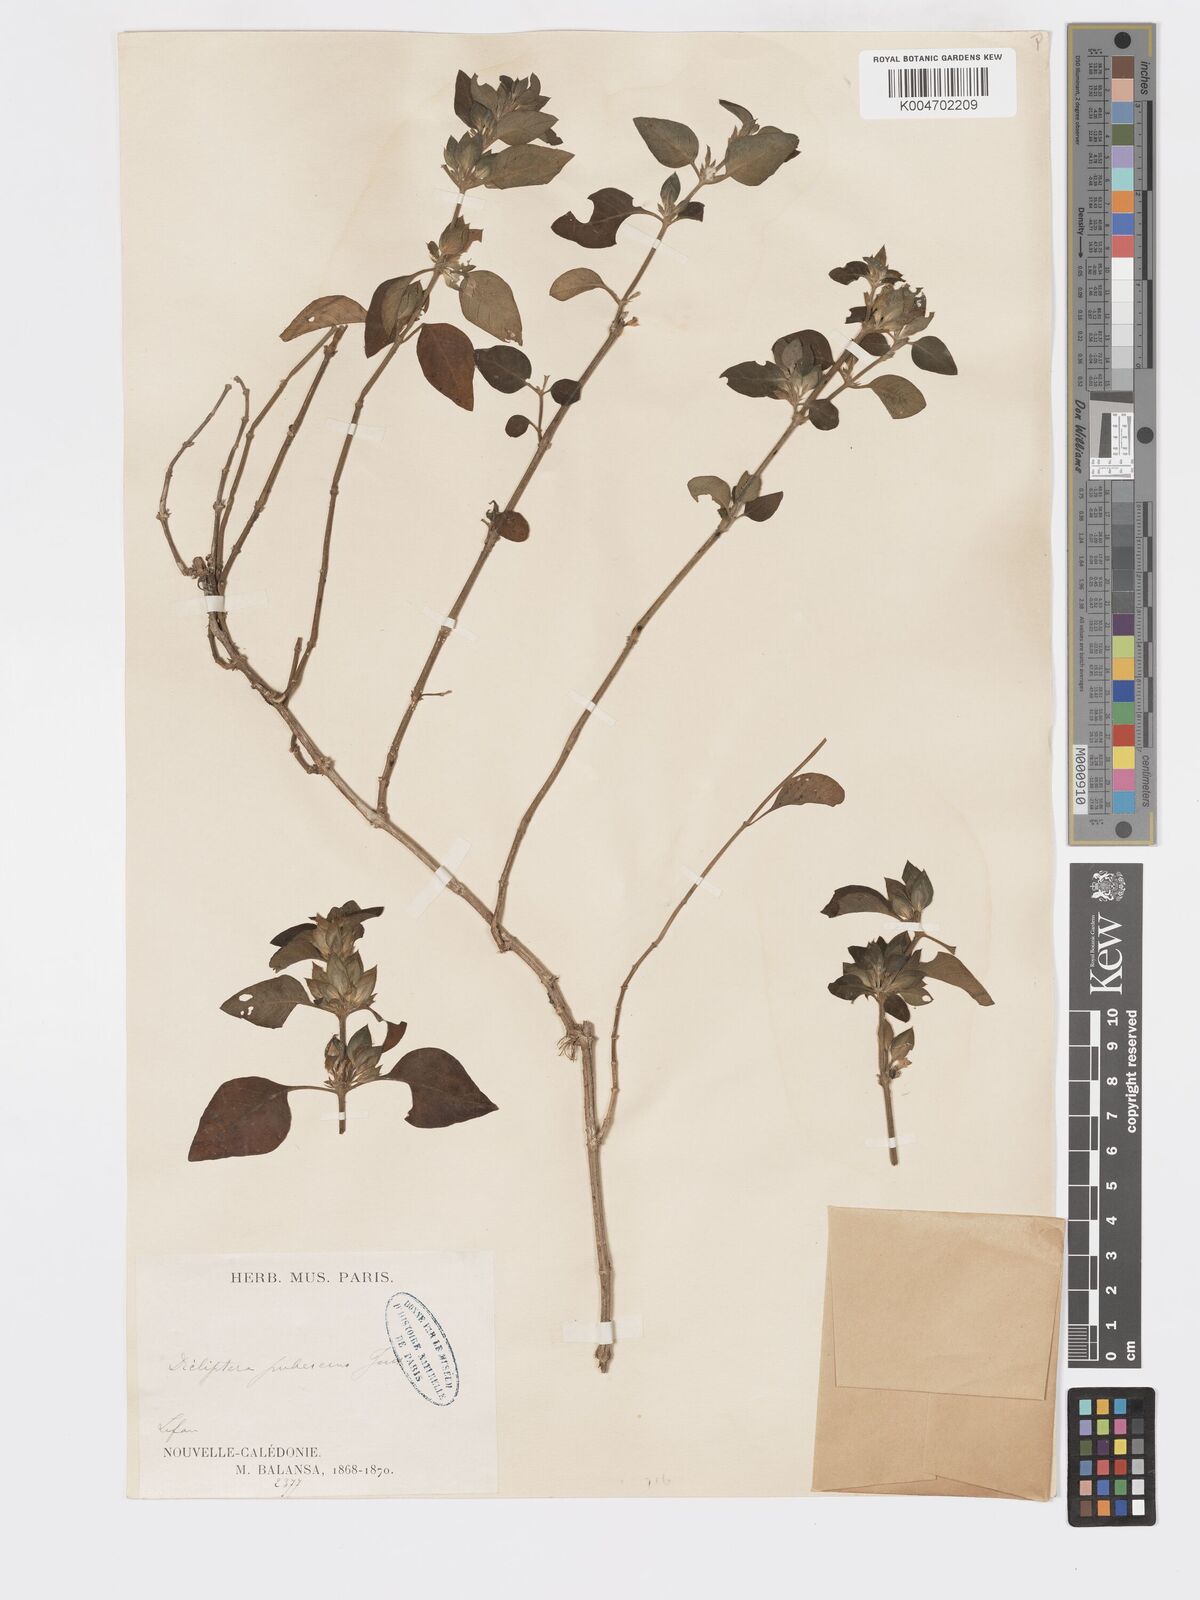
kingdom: Plantae
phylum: Tracheophyta
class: Magnoliopsida
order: Lamiales
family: Acanthaceae
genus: Rungia
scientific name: Rungia parviflora
